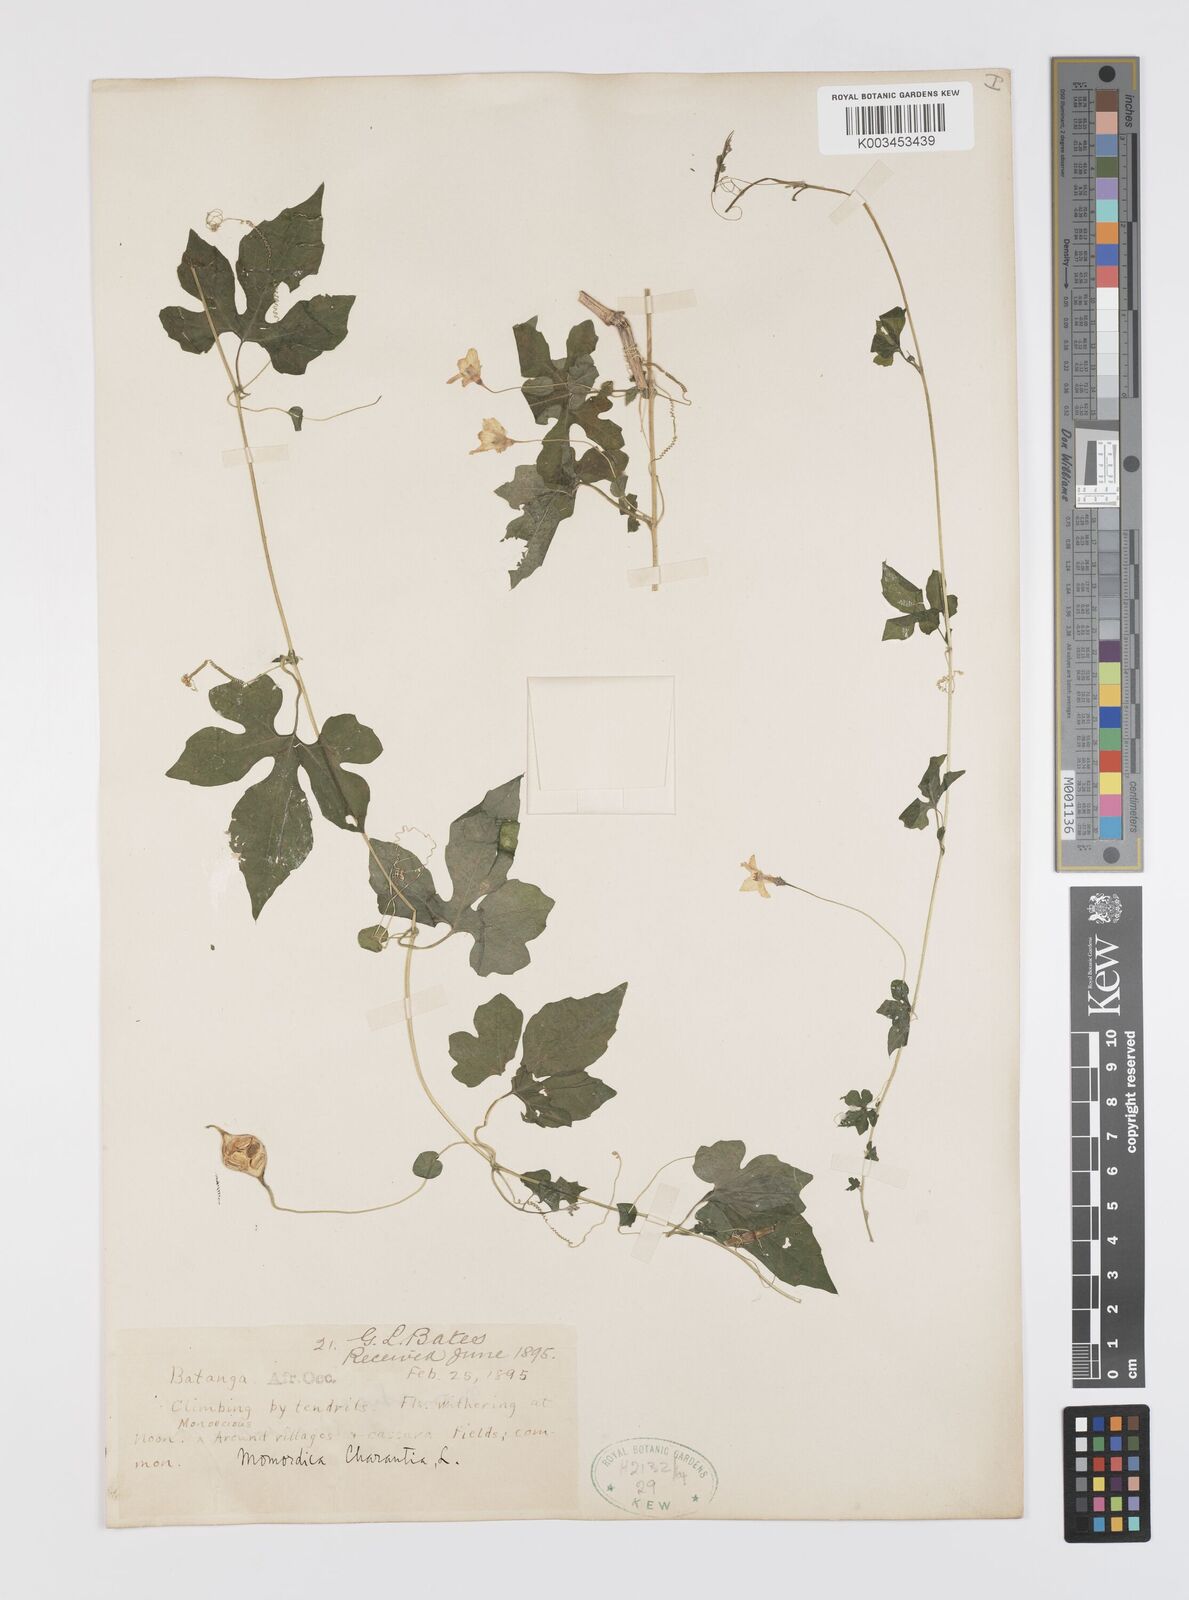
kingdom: Plantae
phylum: Tracheophyta
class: Magnoliopsida
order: Cucurbitales
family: Cucurbitaceae
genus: Momordica
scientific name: Momordica charantia
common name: Balsampear
